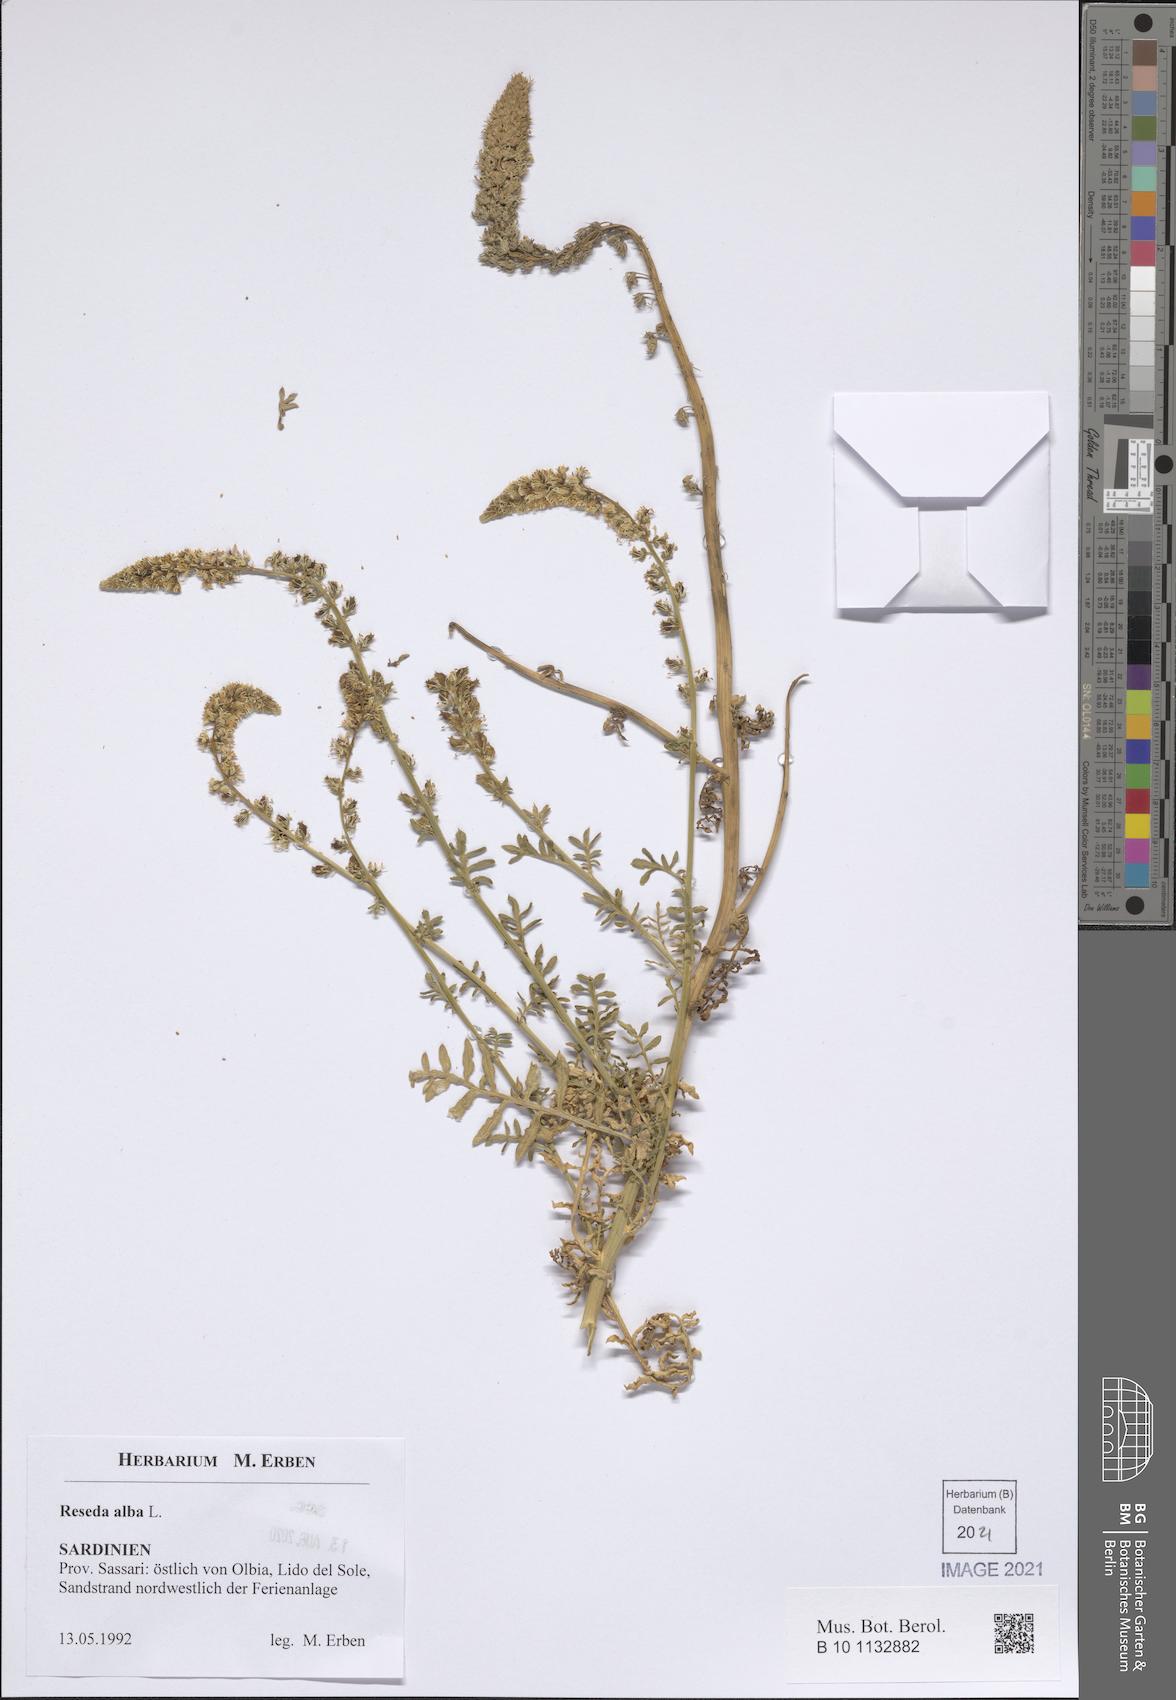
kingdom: Plantae
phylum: Tracheophyta
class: Magnoliopsida
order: Brassicales
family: Resedaceae
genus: Reseda
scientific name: Reseda alba
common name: White mignonette
